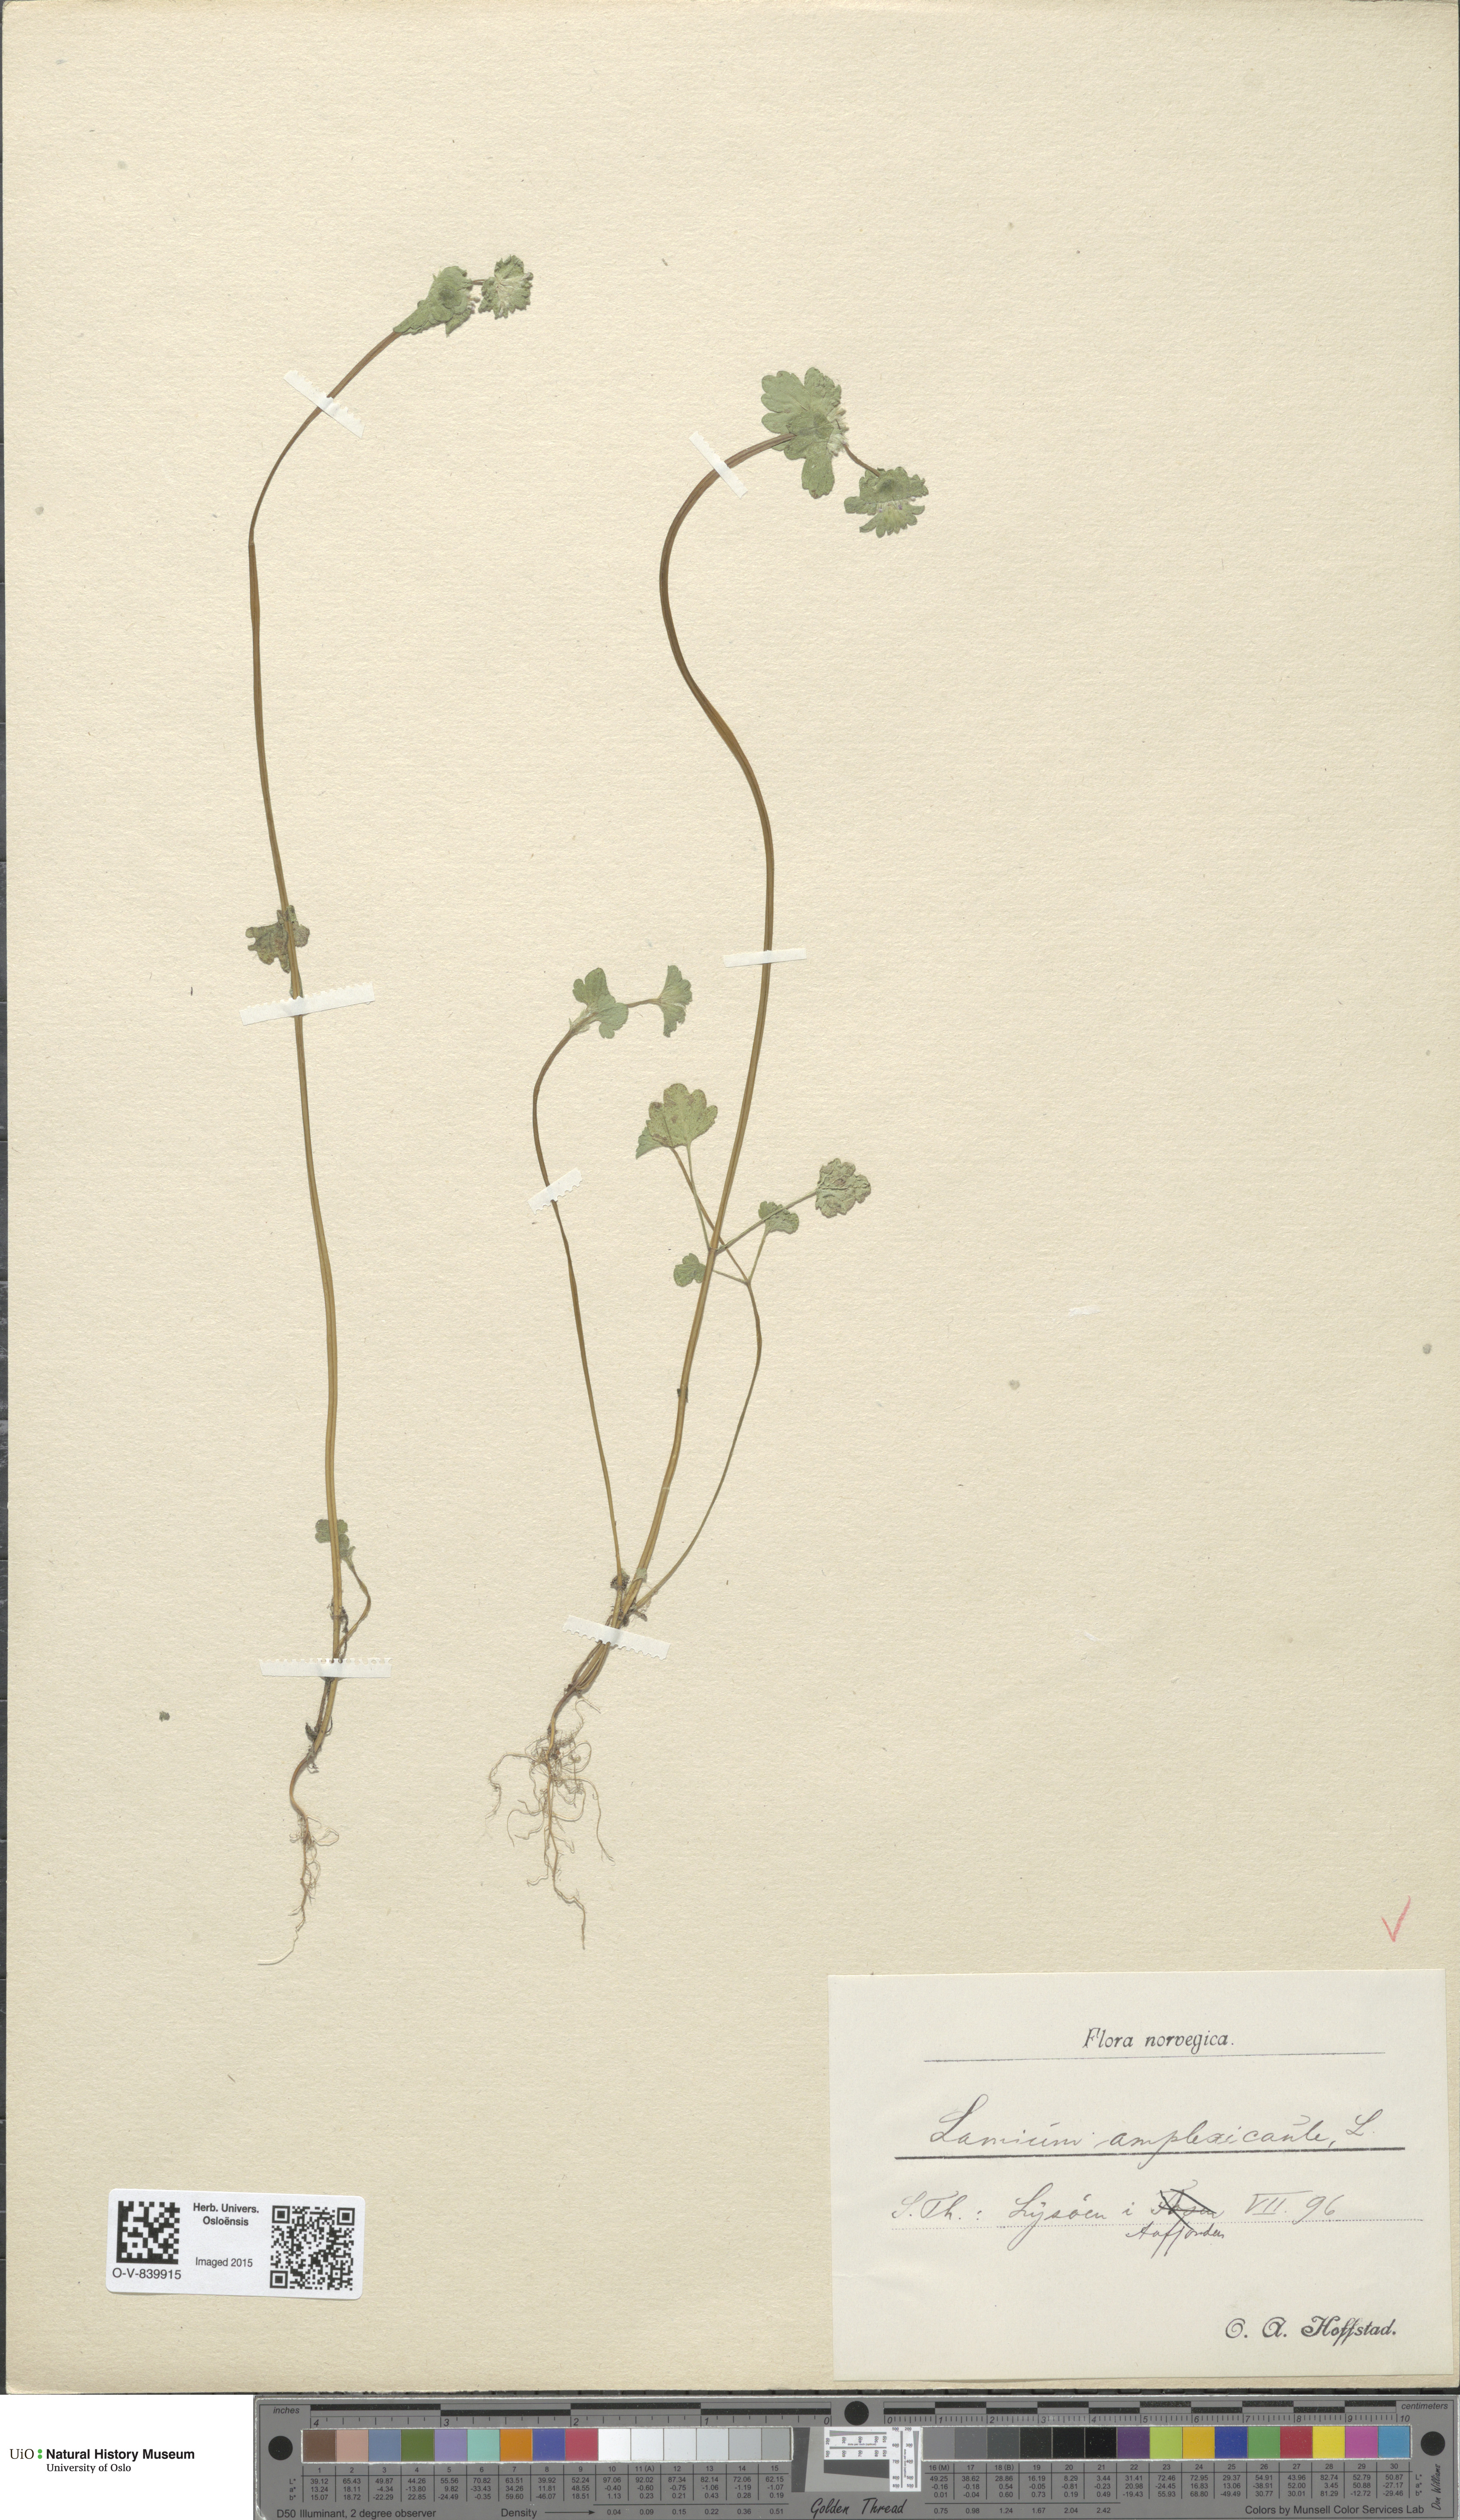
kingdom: Plantae
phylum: Tracheophyta
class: Magnoliopsida
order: Lamiales
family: Lamiaceae
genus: Lamium
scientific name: Lamium amplexicaule
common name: Henbit dead-nettle
